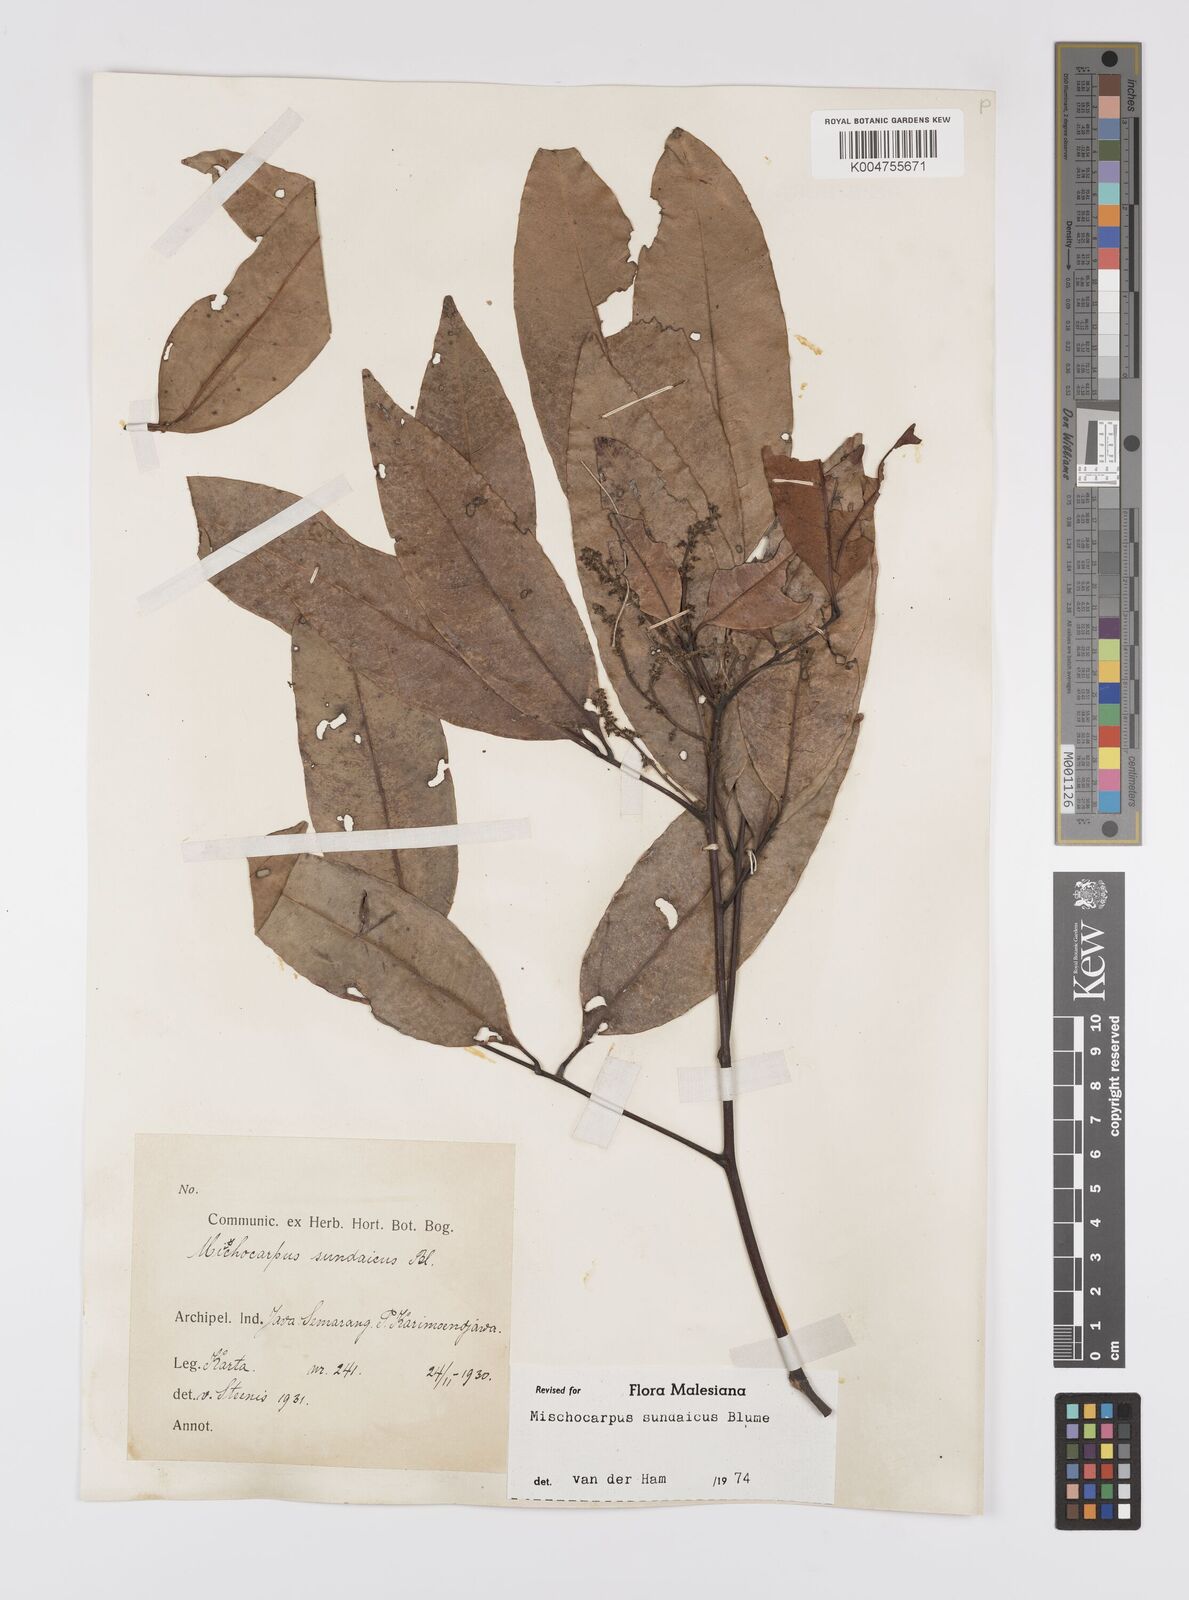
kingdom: Plantae
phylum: Tracheophyta
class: Magnoliopsida
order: Sapindales
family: Sapindaceae
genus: Mischocarpus
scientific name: Mischocarpus sundaicus
